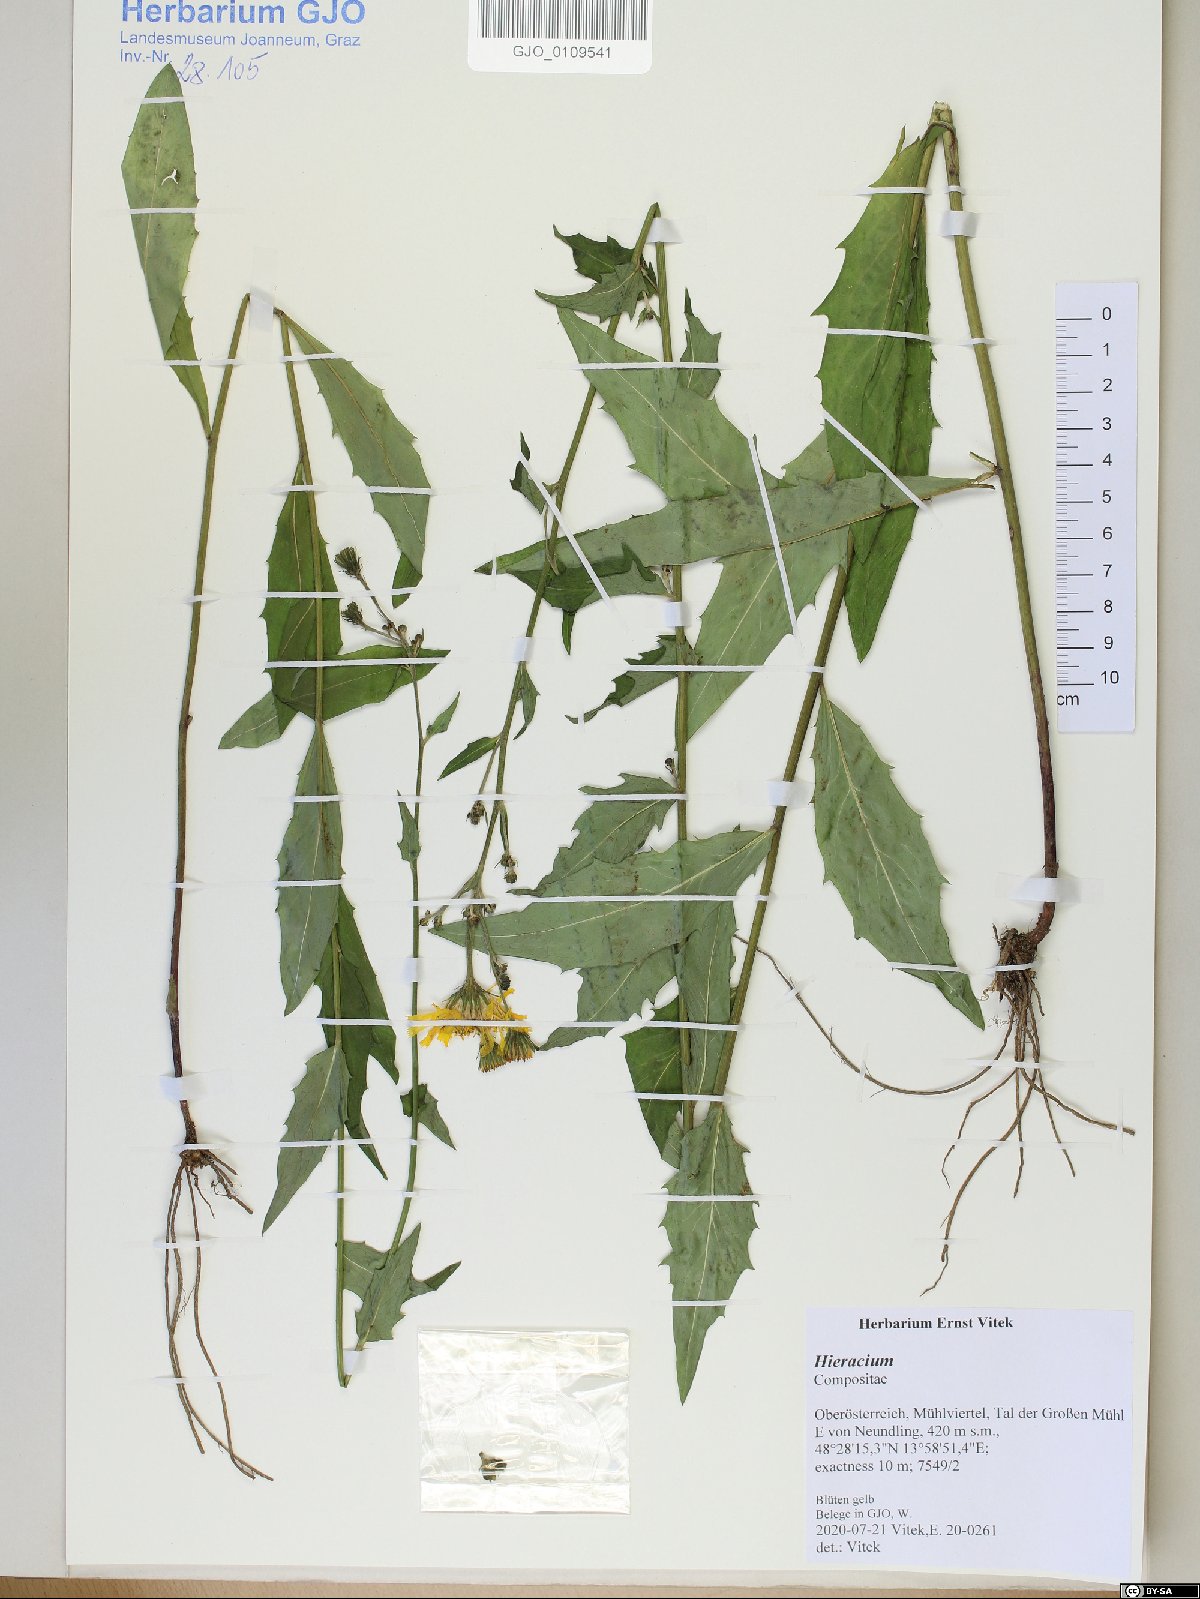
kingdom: Plantae
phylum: Tracheophyta
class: Magnoliopsida
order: Asterales
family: Asteraceae
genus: Hieracium
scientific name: Hieracium
